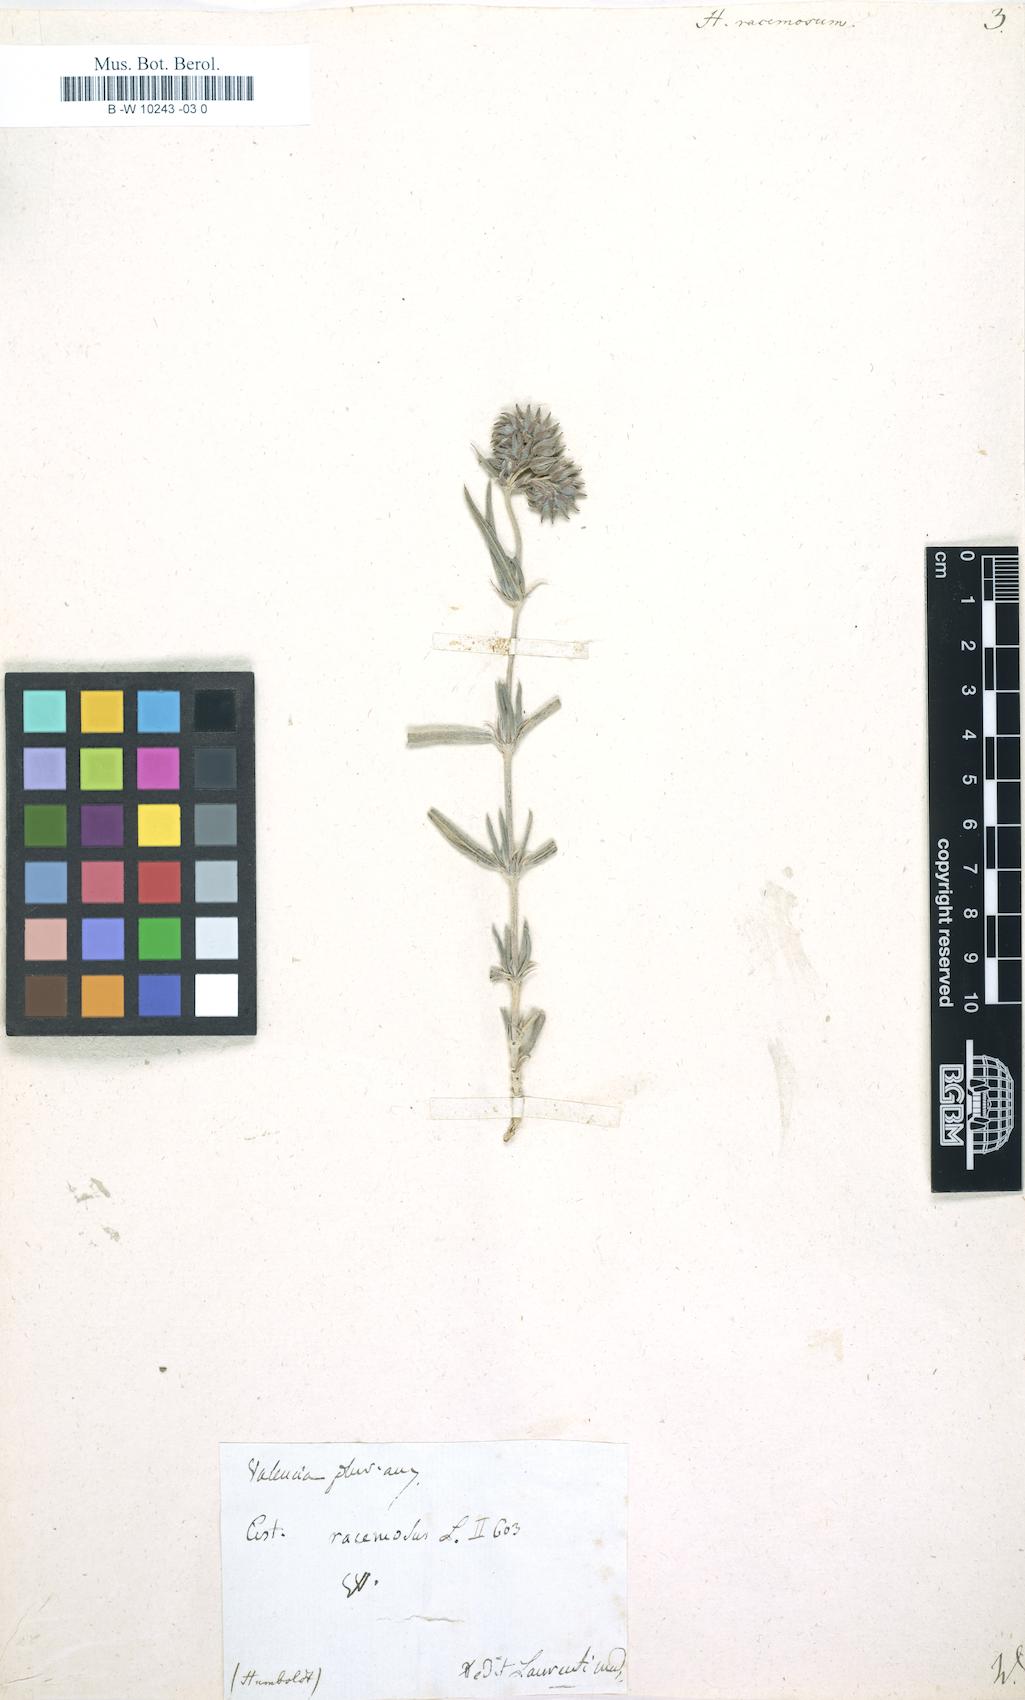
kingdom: Plantae
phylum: Tracheophyta
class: Magnoliopsida
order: Malvales
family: Cistaceae
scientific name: Cistaceae
